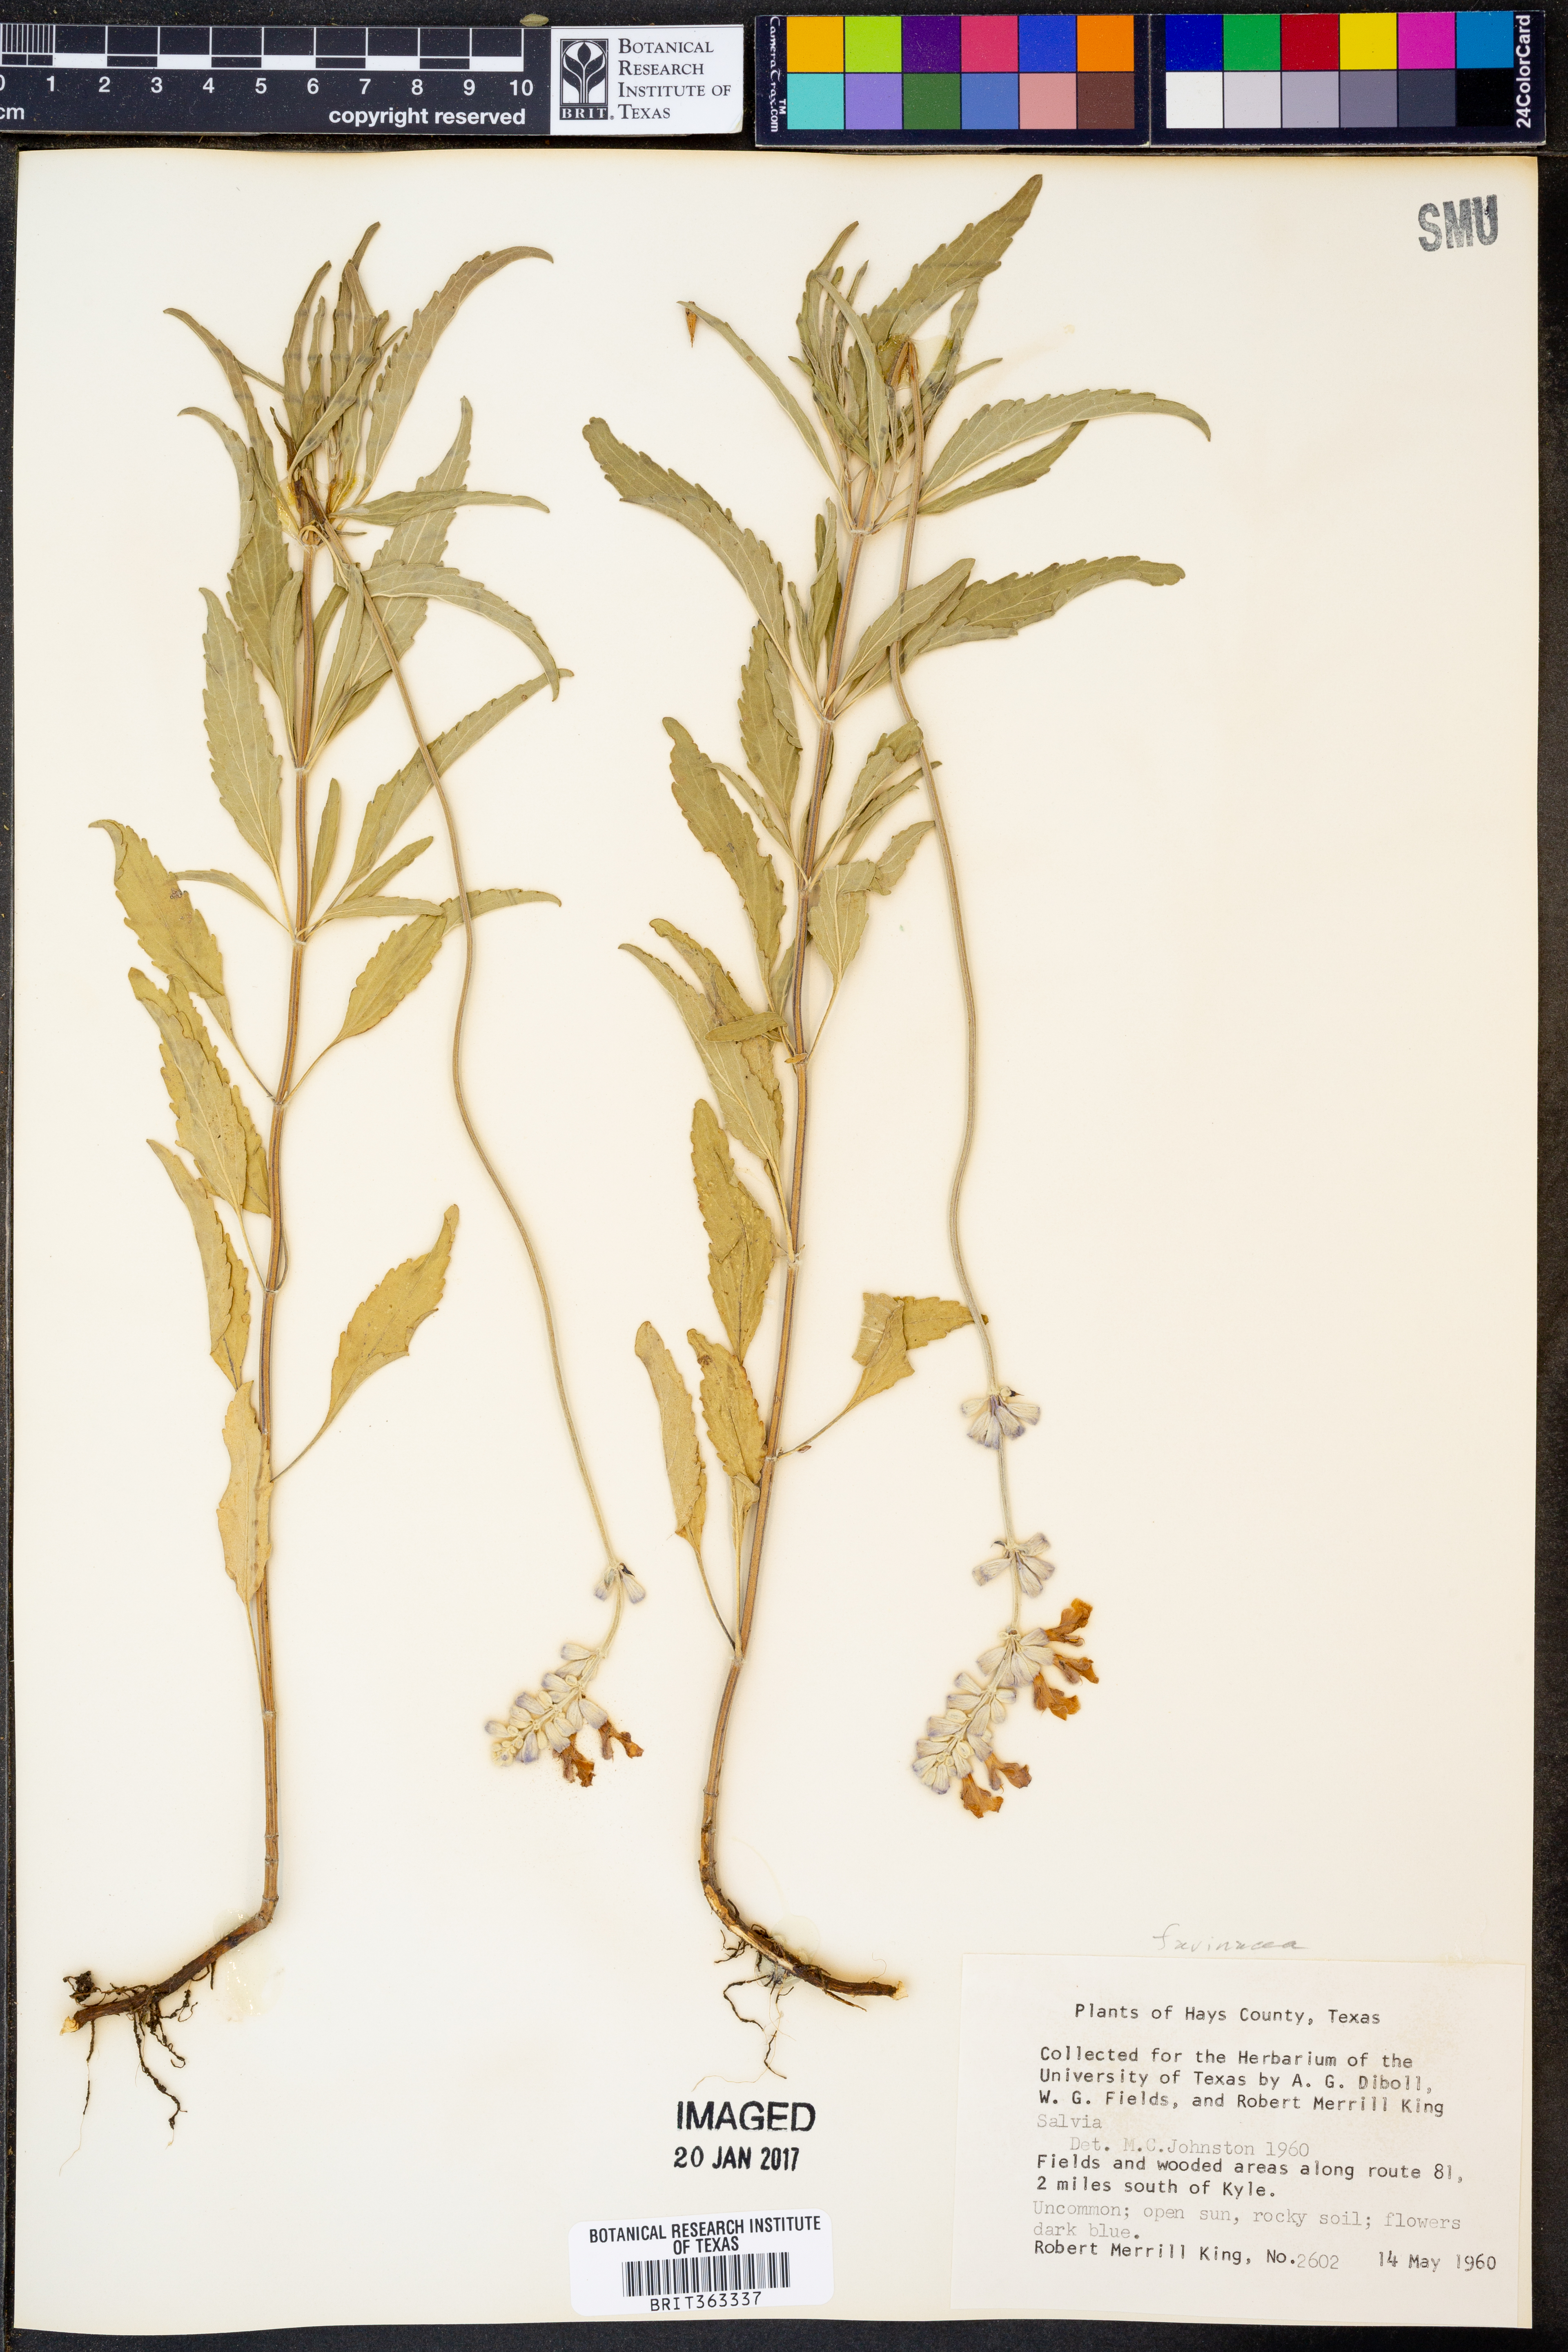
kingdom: Plantae
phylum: Tracheophyta
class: Magnoliopsida
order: Lamiales
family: Lamiaceae
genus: Salvia
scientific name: Salvia farinacea
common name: Mealy sage
